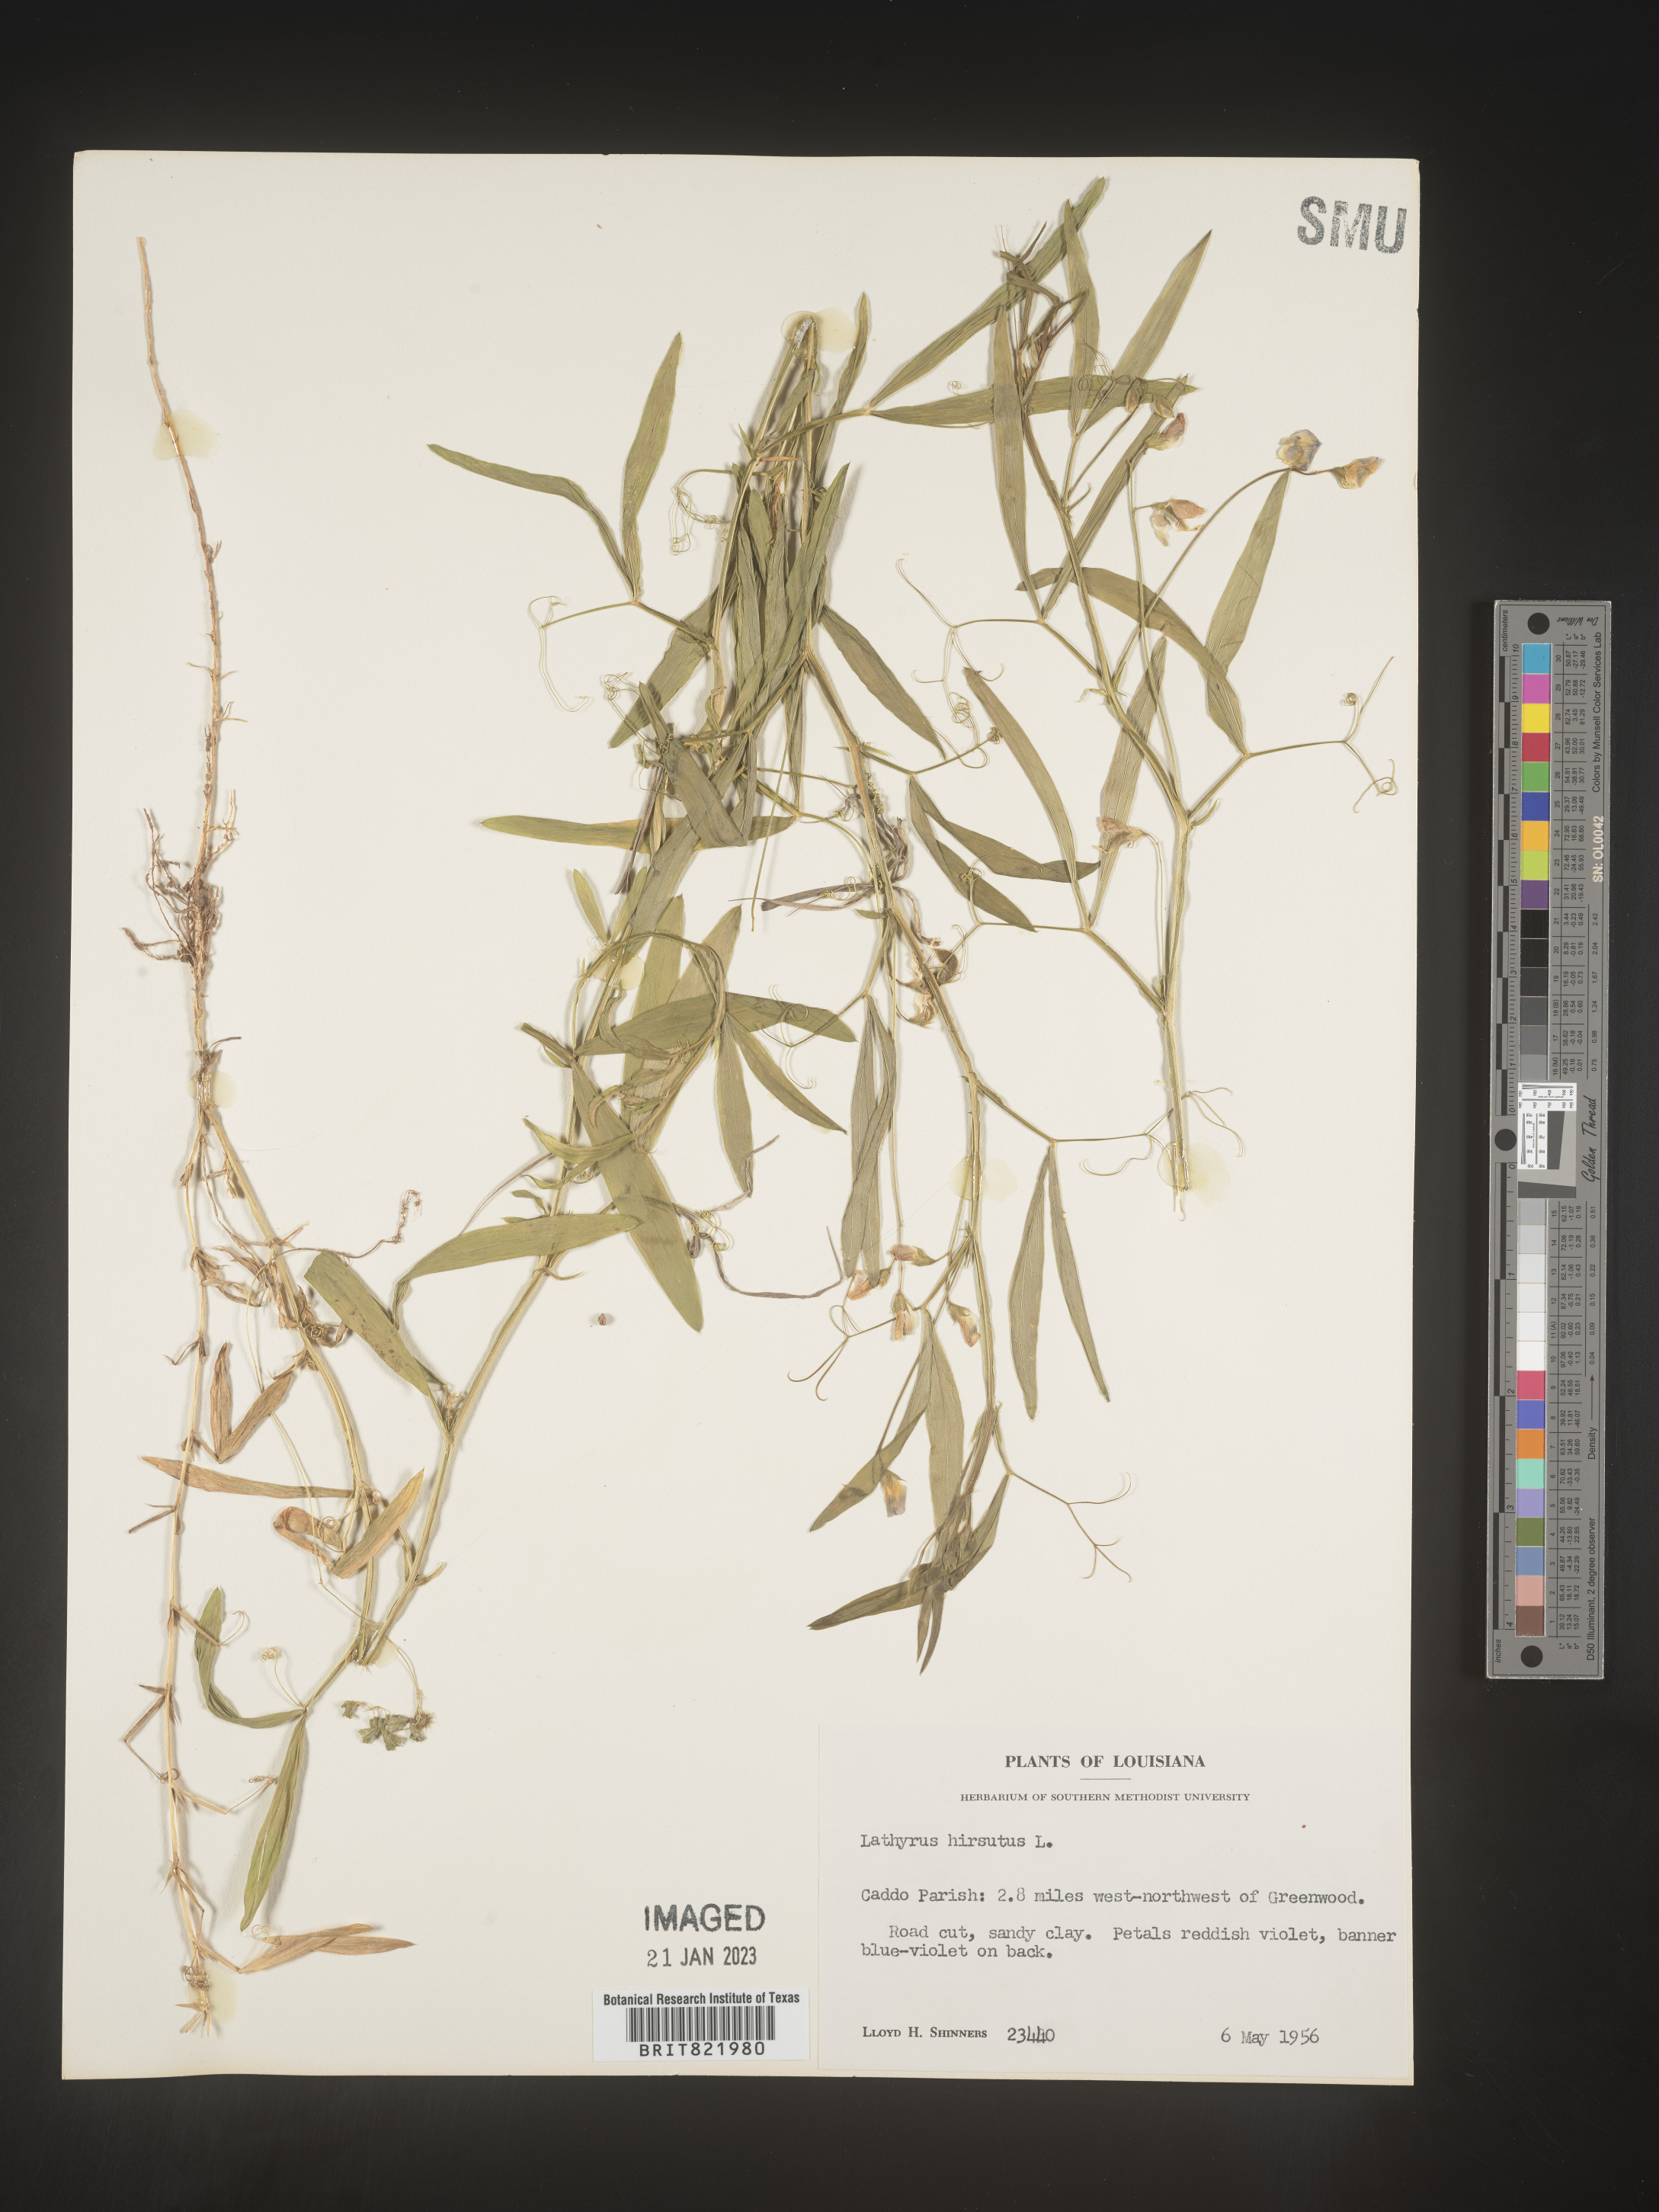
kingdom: Plantae
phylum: Tracheophyta
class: Magnoliopsida
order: Fabales
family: Fabaceae
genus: Lathyrus
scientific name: Lathyrus hirsutus
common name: Hairy vetchling
